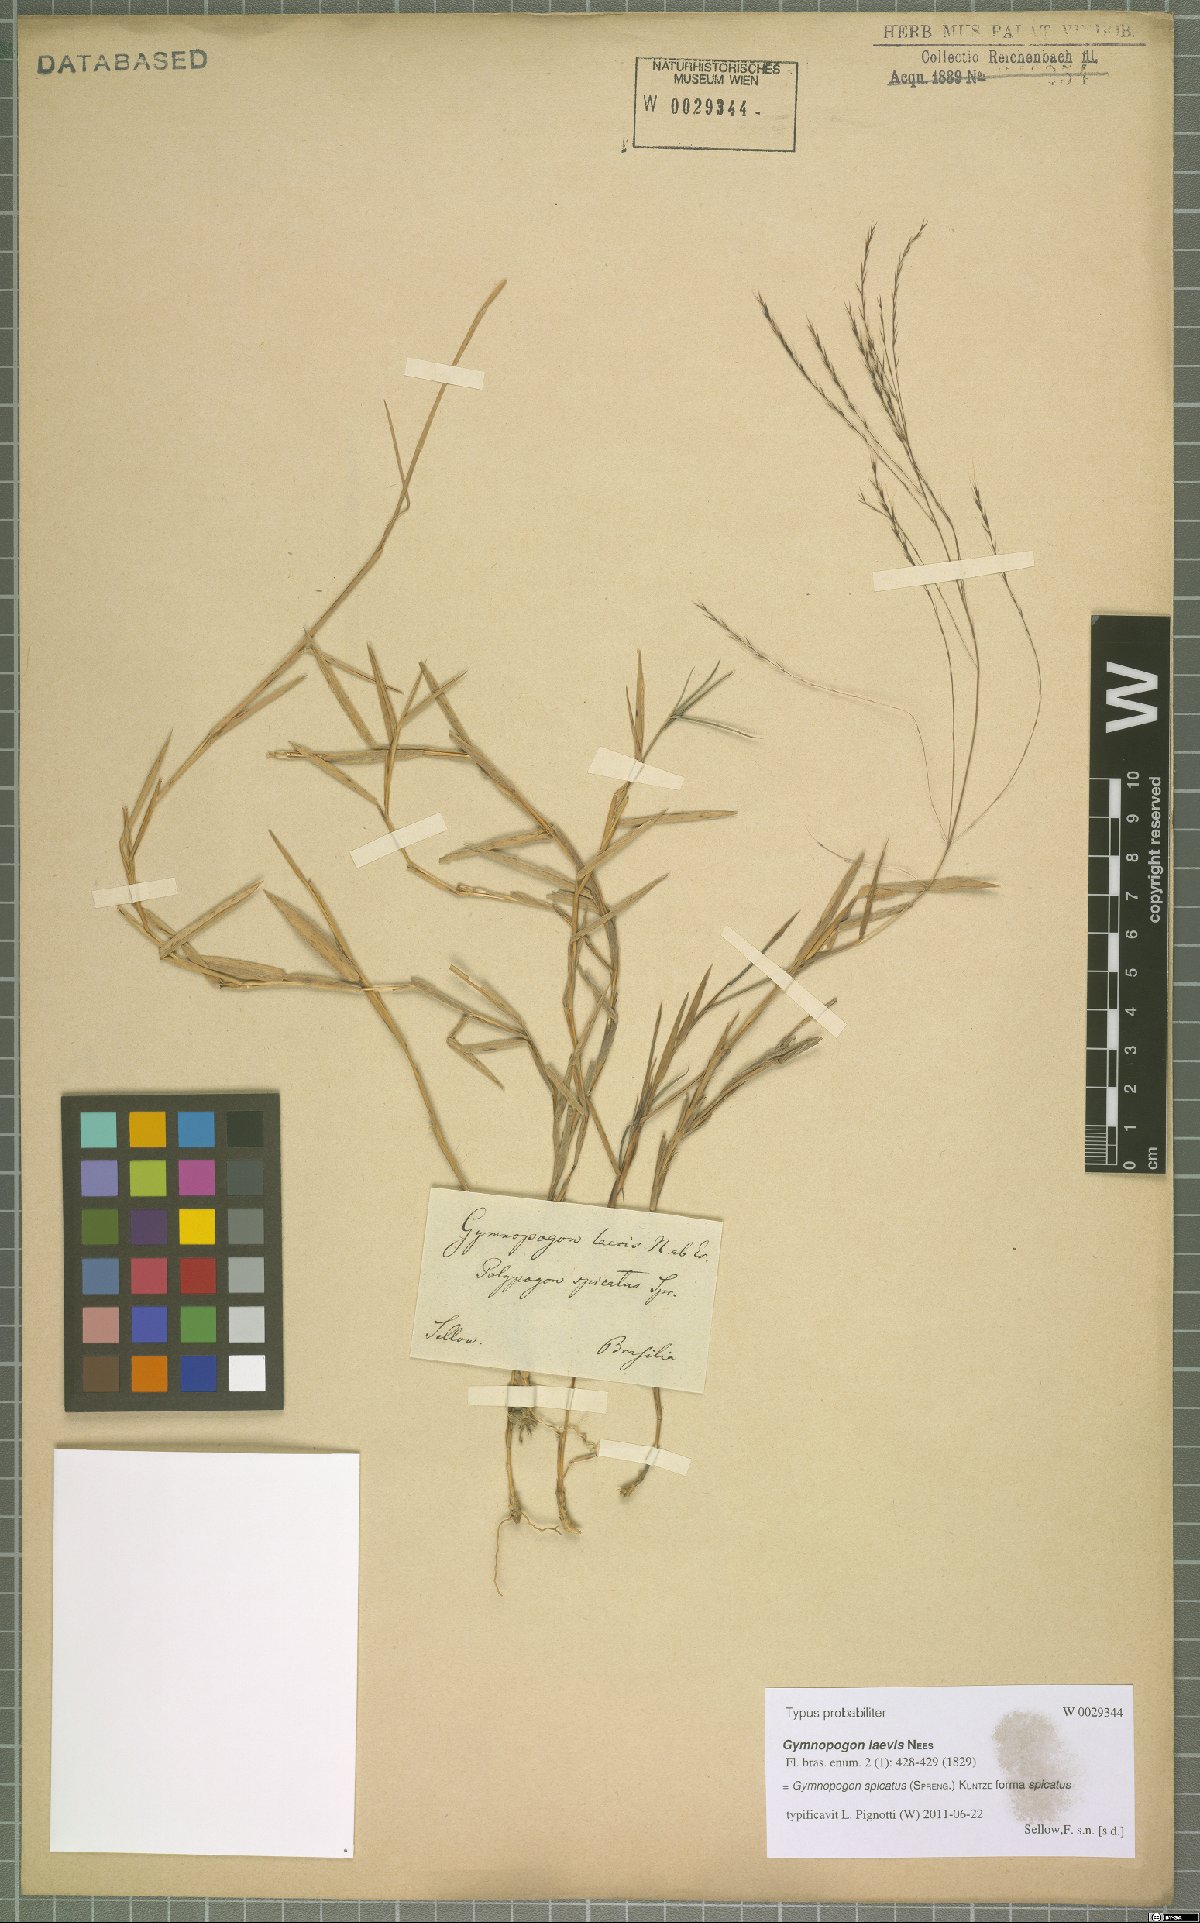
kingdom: Plantae
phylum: Tracheophyta
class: Liliopsida
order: Poales
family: Poaceae
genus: Gymnopogon
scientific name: Gymnopogon spicatus
